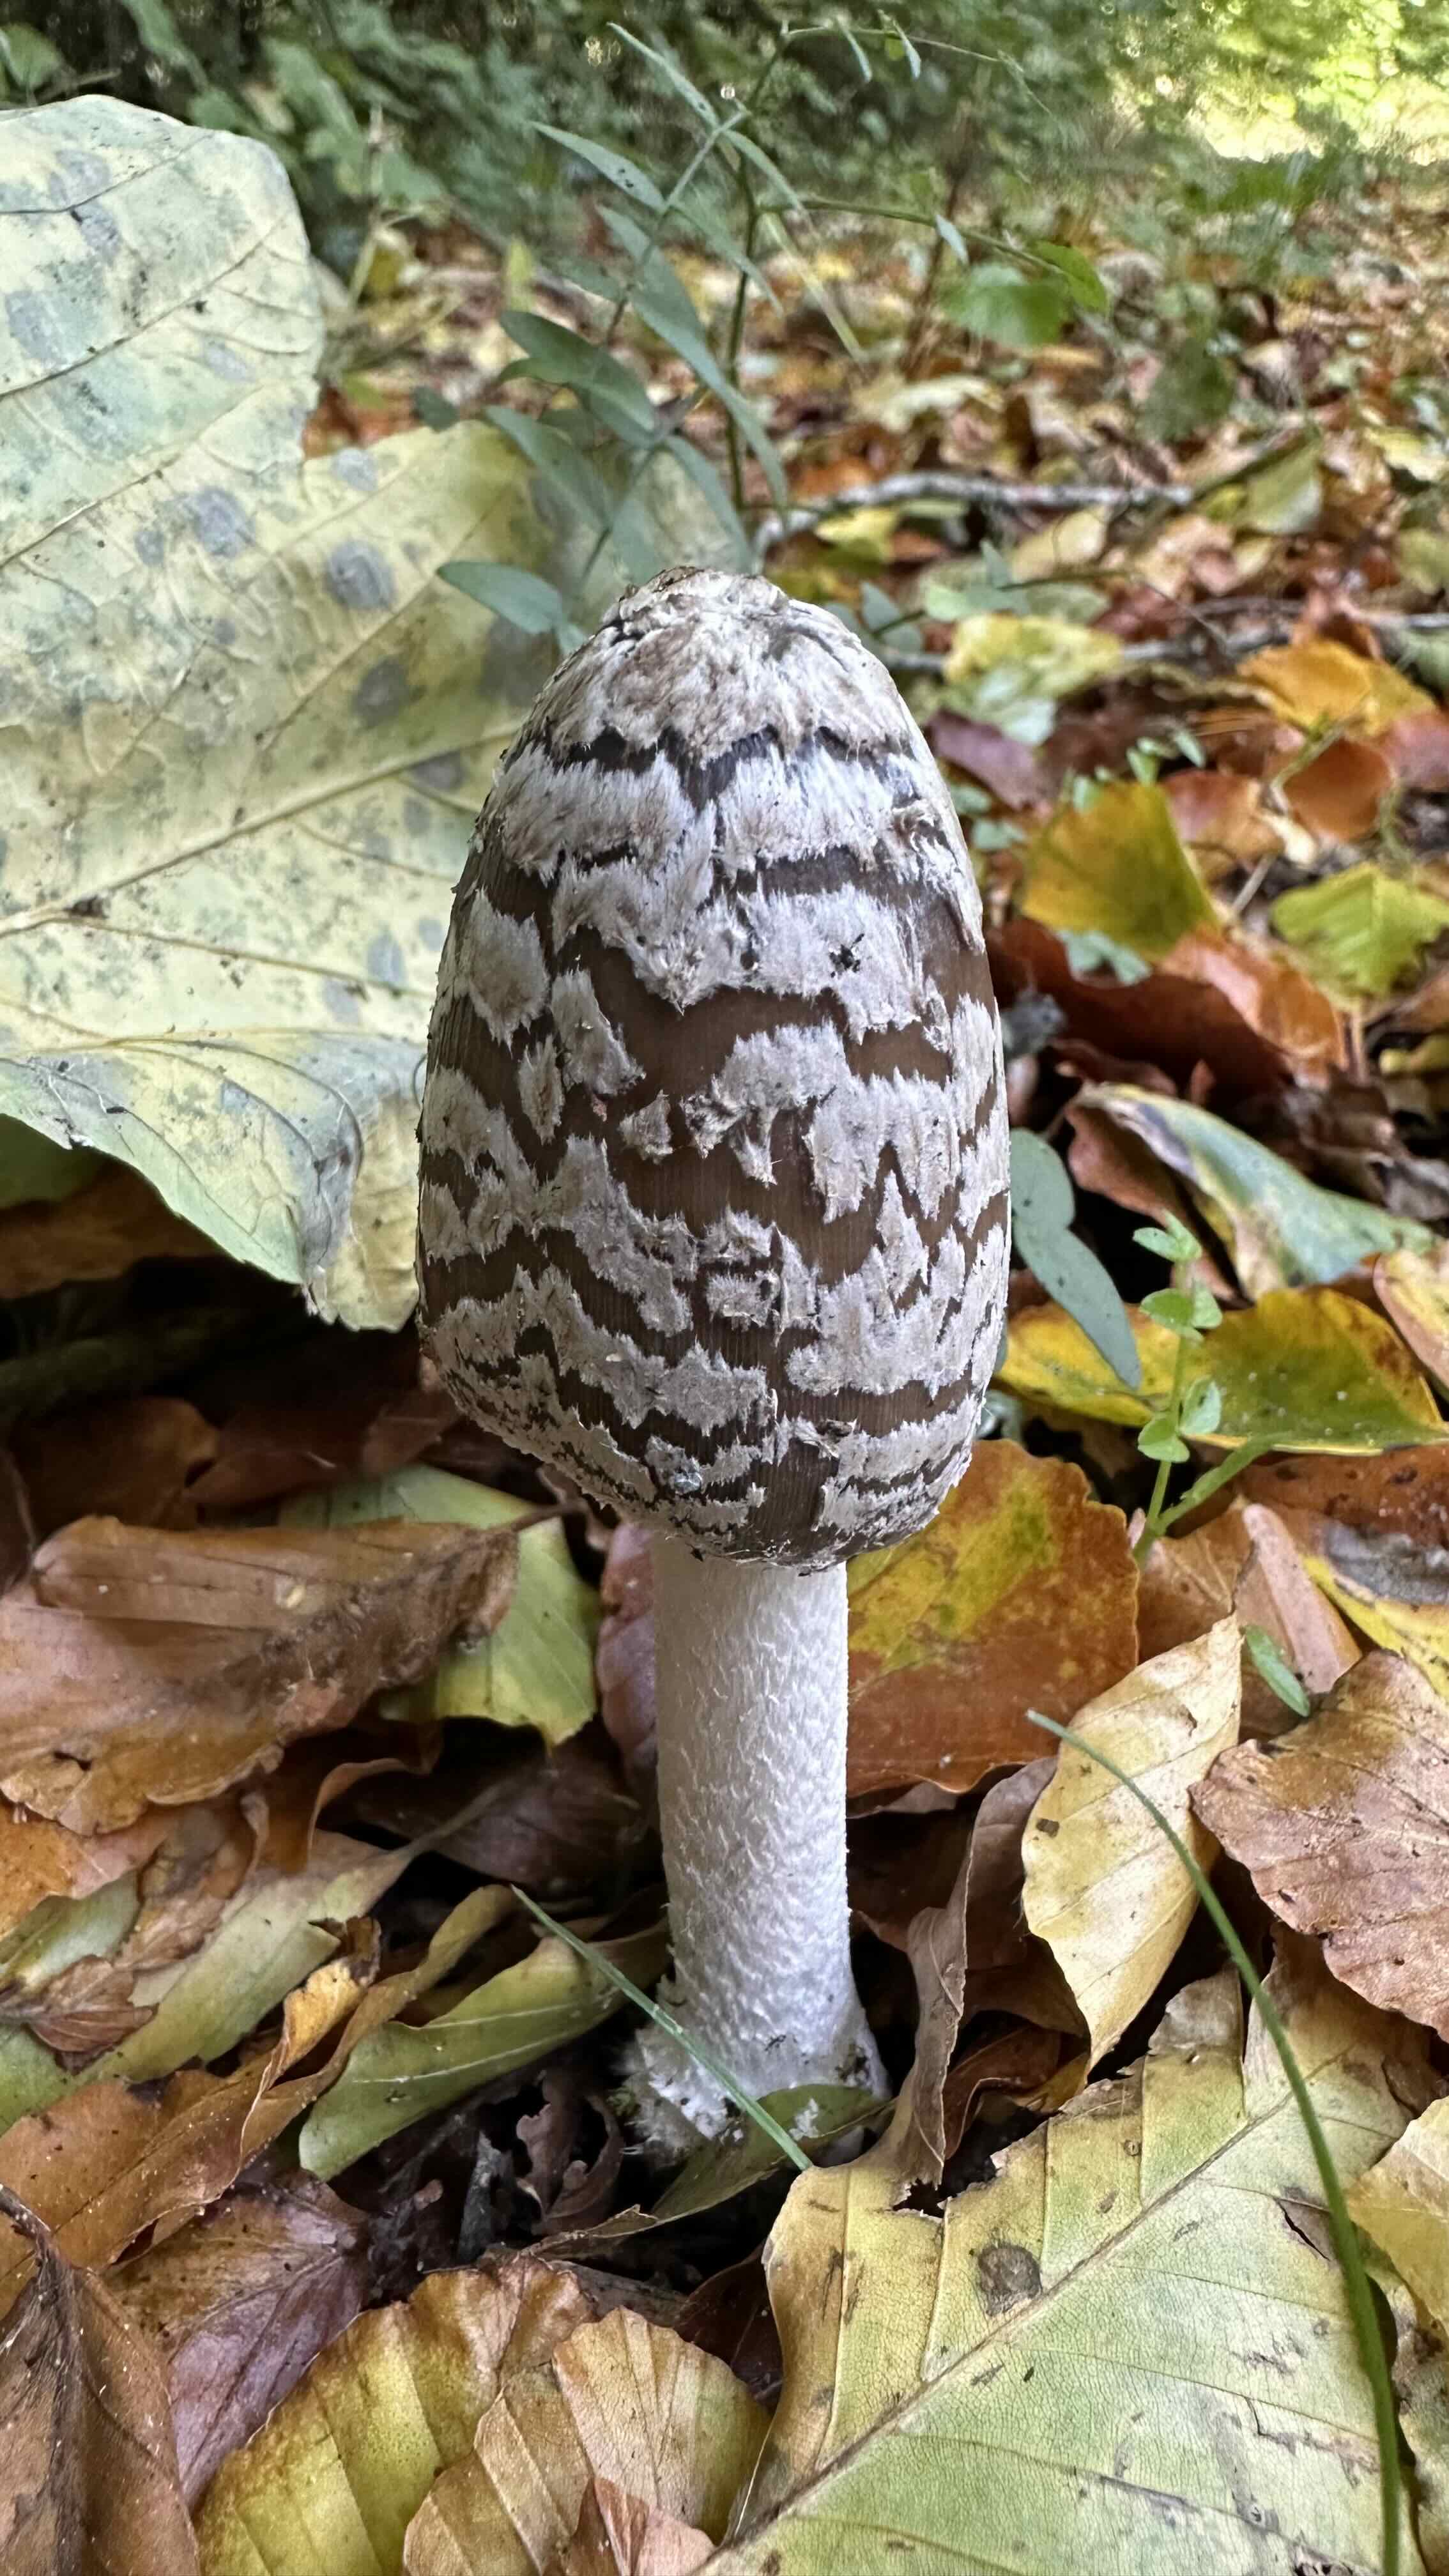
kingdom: Fungi
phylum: Basidiomycota
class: Agaricomycetes
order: Agaricales
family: Psathyrellaceae
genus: Coprinopsis
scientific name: Coprinopsis picacea
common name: skade-blækhat
